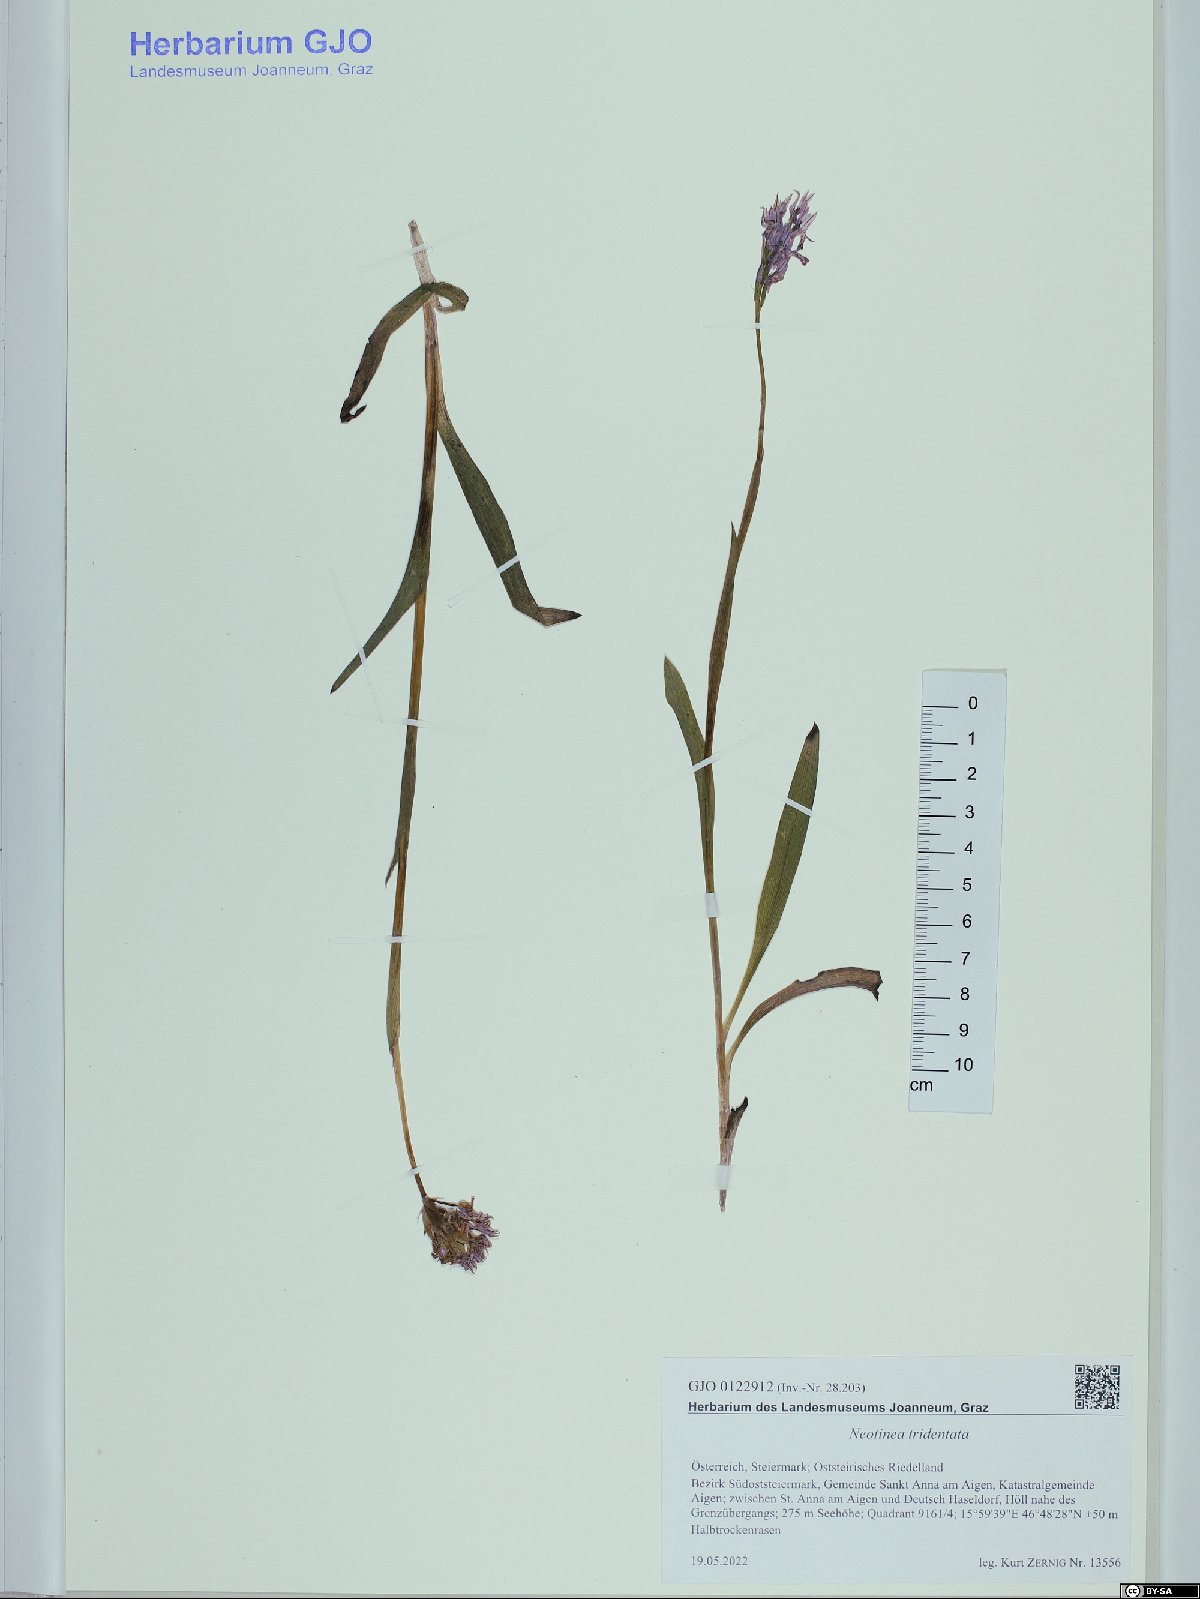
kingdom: Plantae
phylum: Tracheophyta
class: Liliopsida
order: Asparagales
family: Orchidaceae
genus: Neotinea
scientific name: Neotinea tridentata
